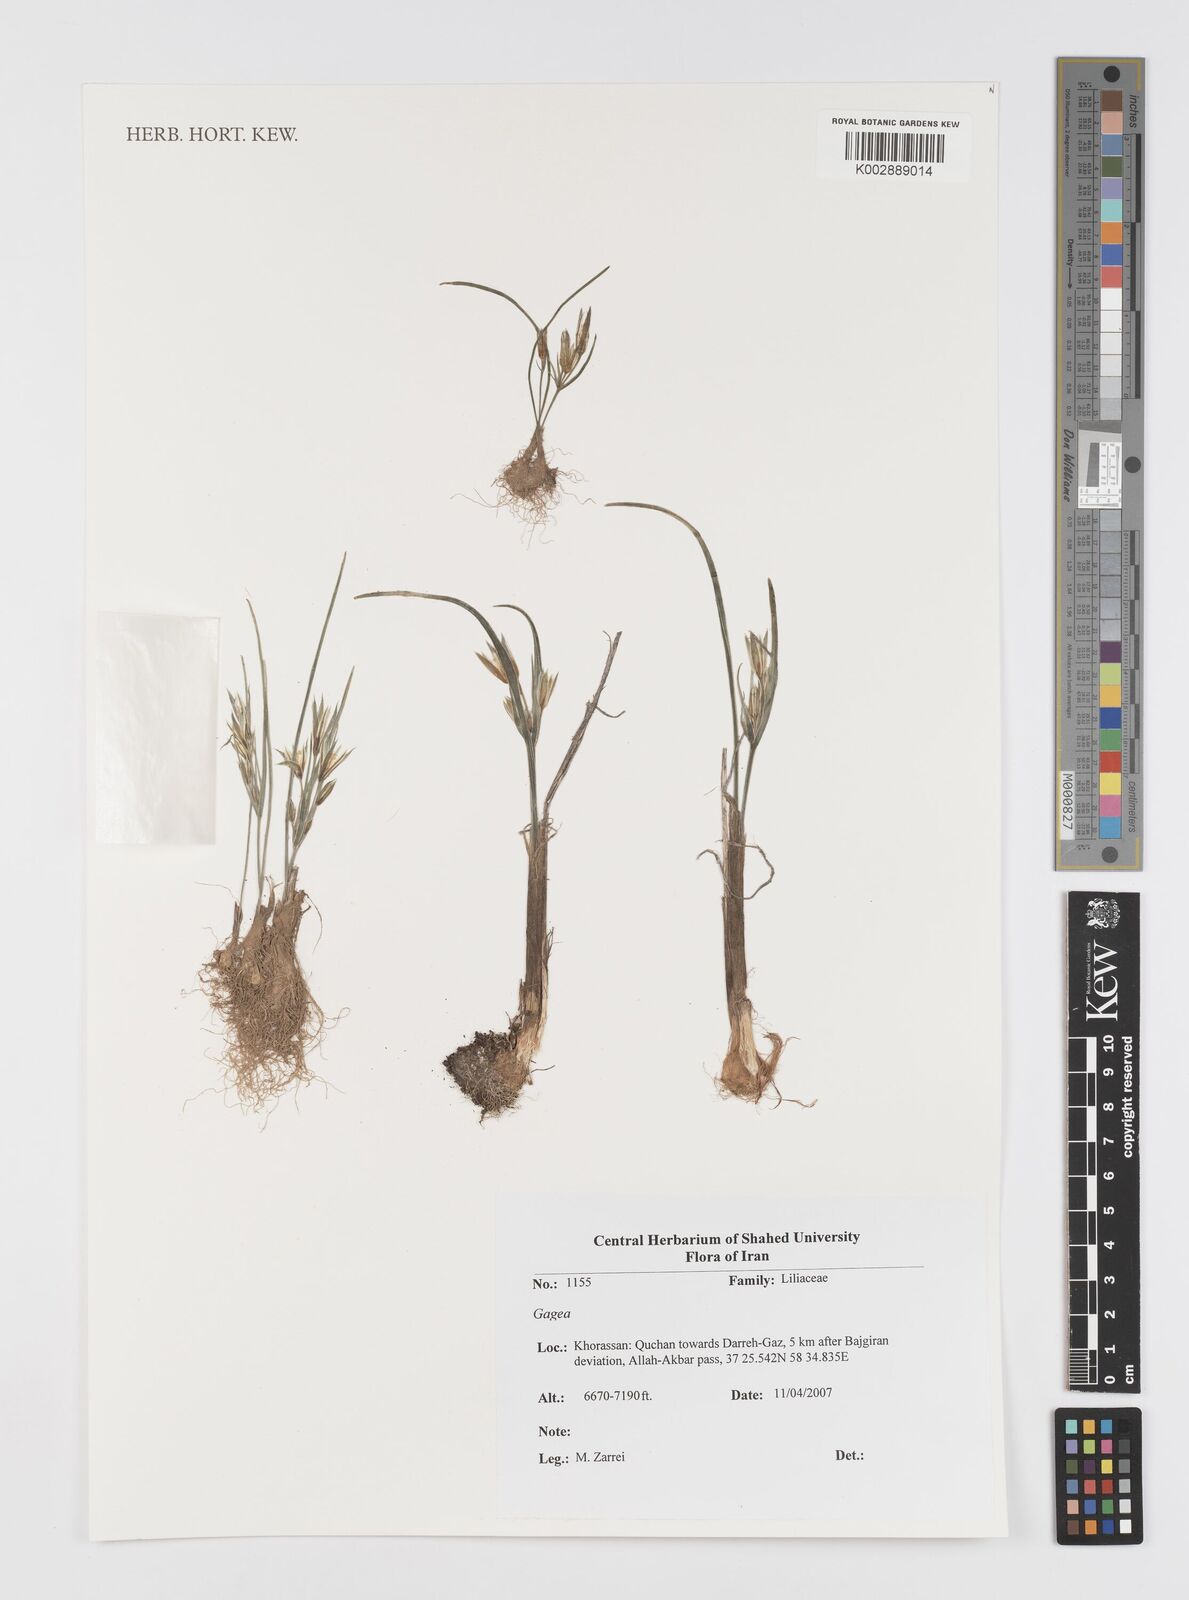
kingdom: Plantae
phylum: Tracheophyta
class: Liliopsida
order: Liliales
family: Liliaceae
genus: Gagea
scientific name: Gagea
